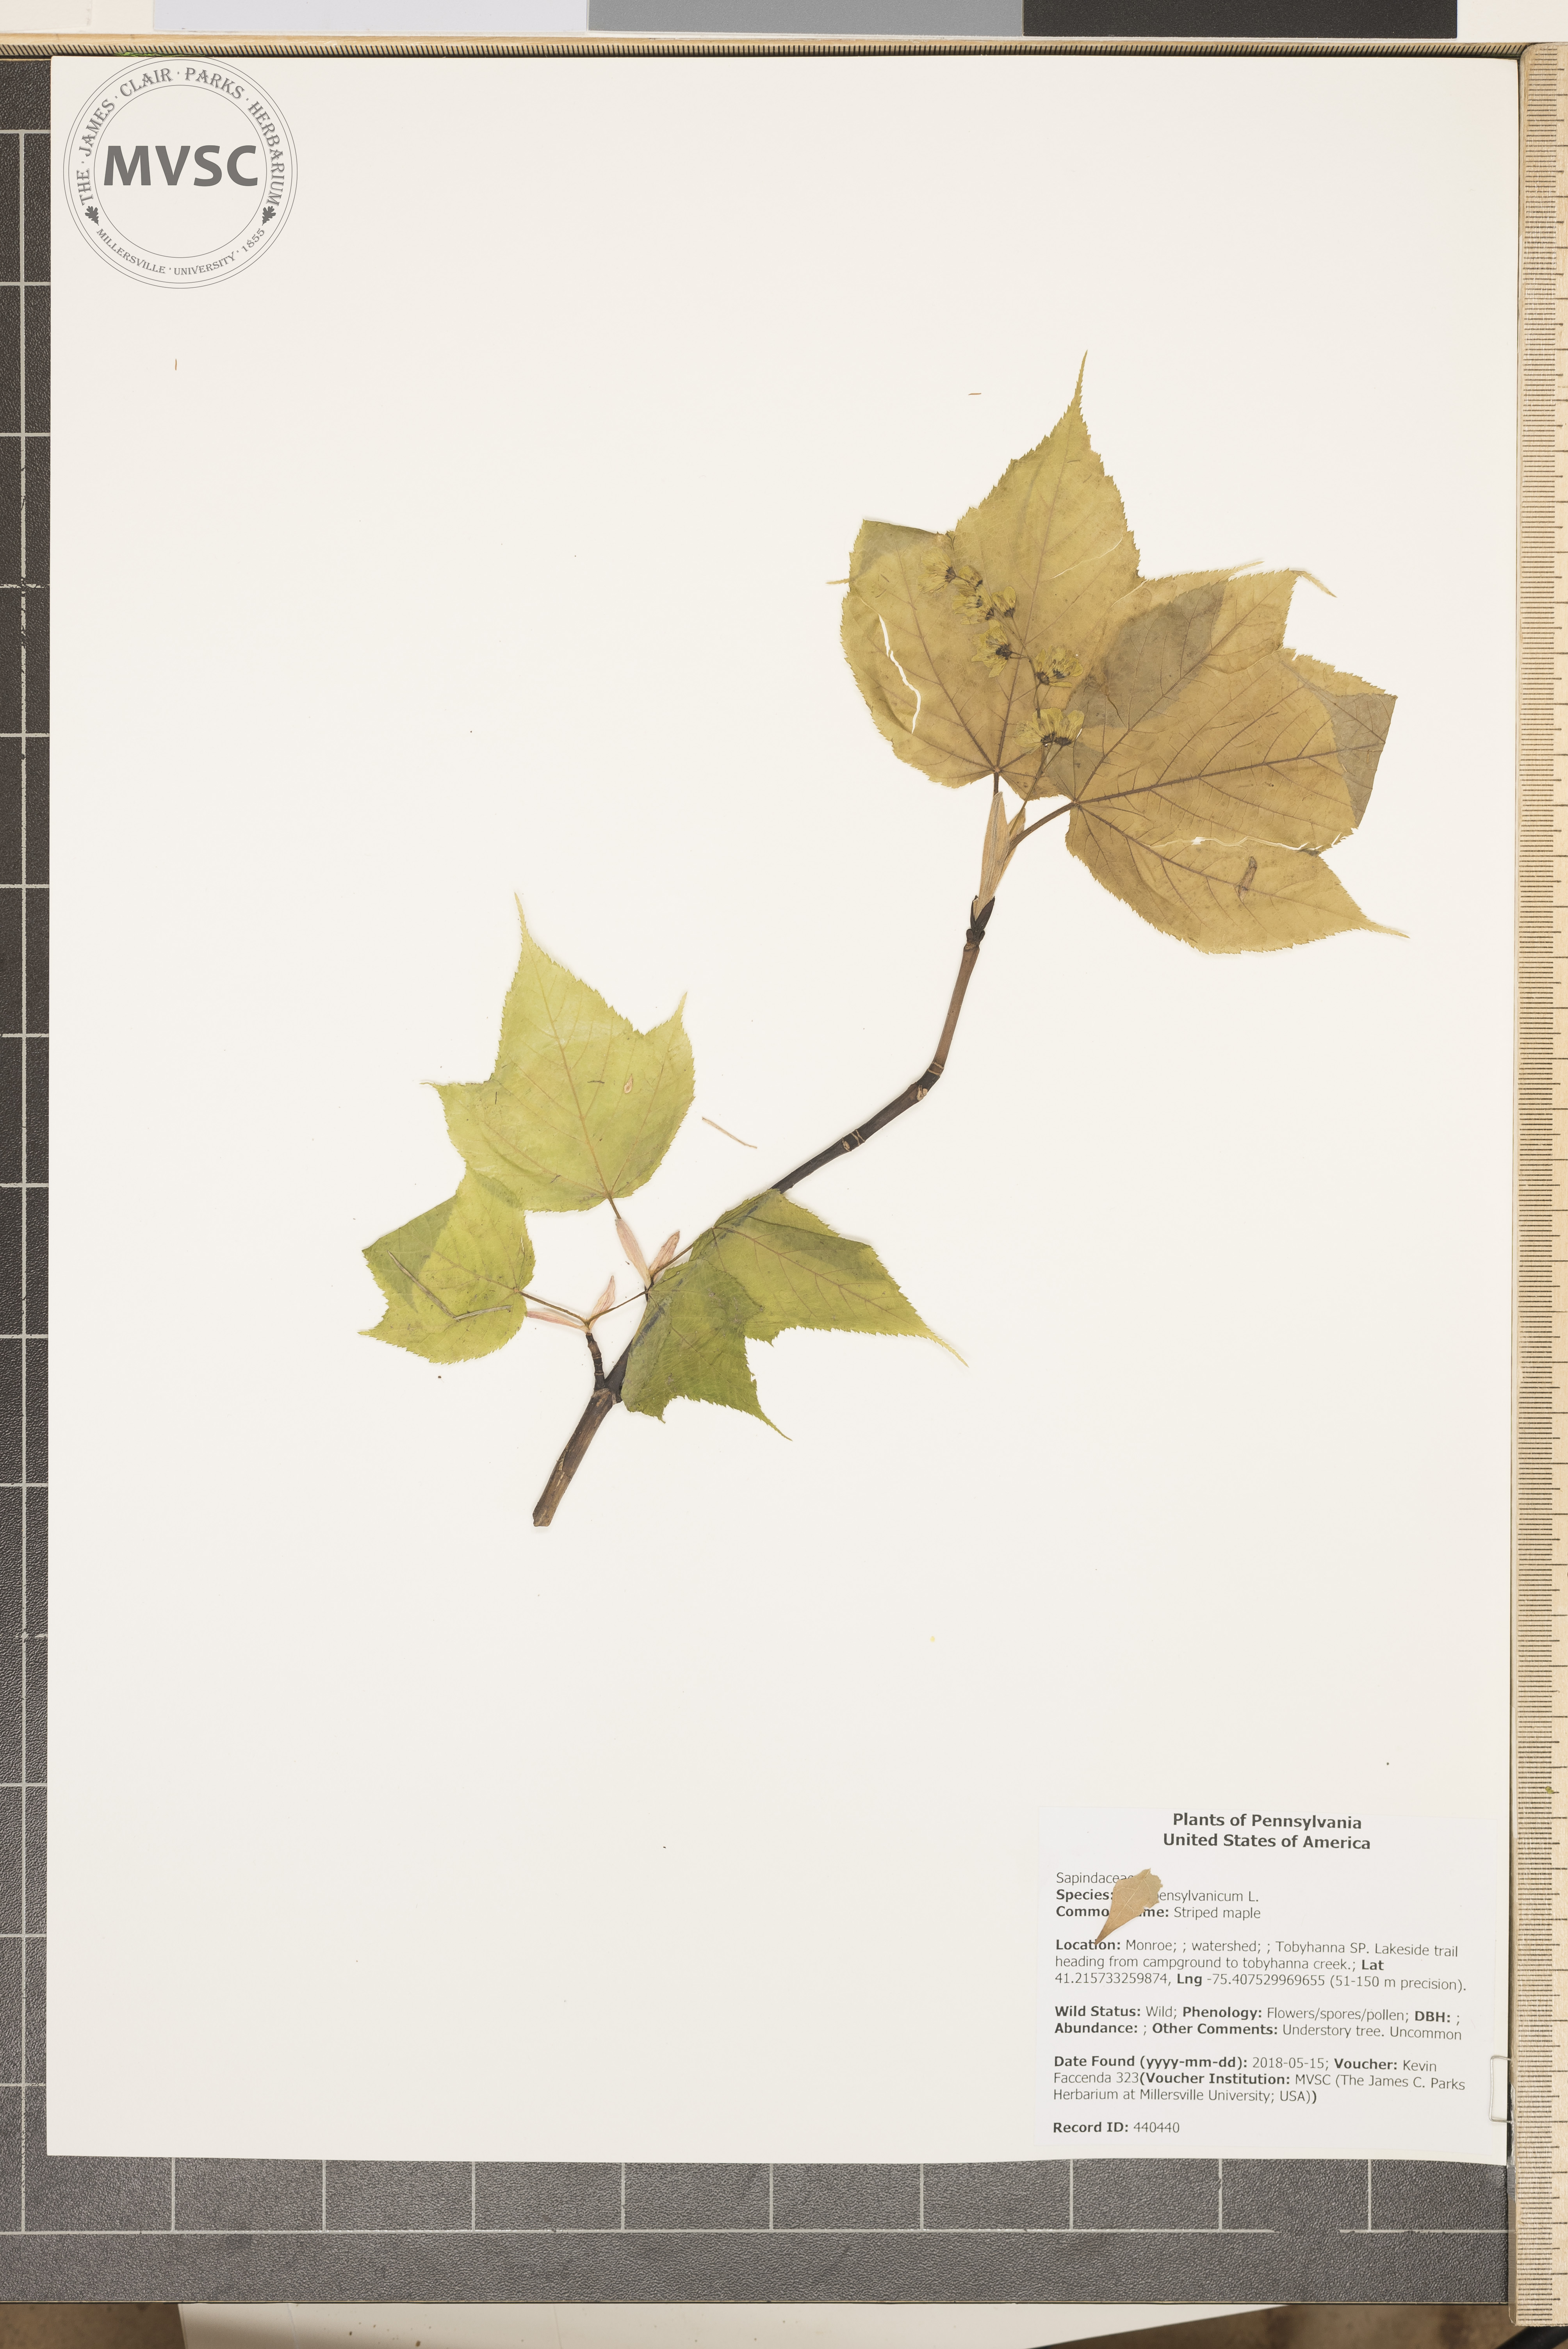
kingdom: Plantae
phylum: Tracheophyta
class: Magnoliopsida
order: Sapindales
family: Sapindaceae
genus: Acer
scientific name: Acer pensylvanicum
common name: Striped maple
